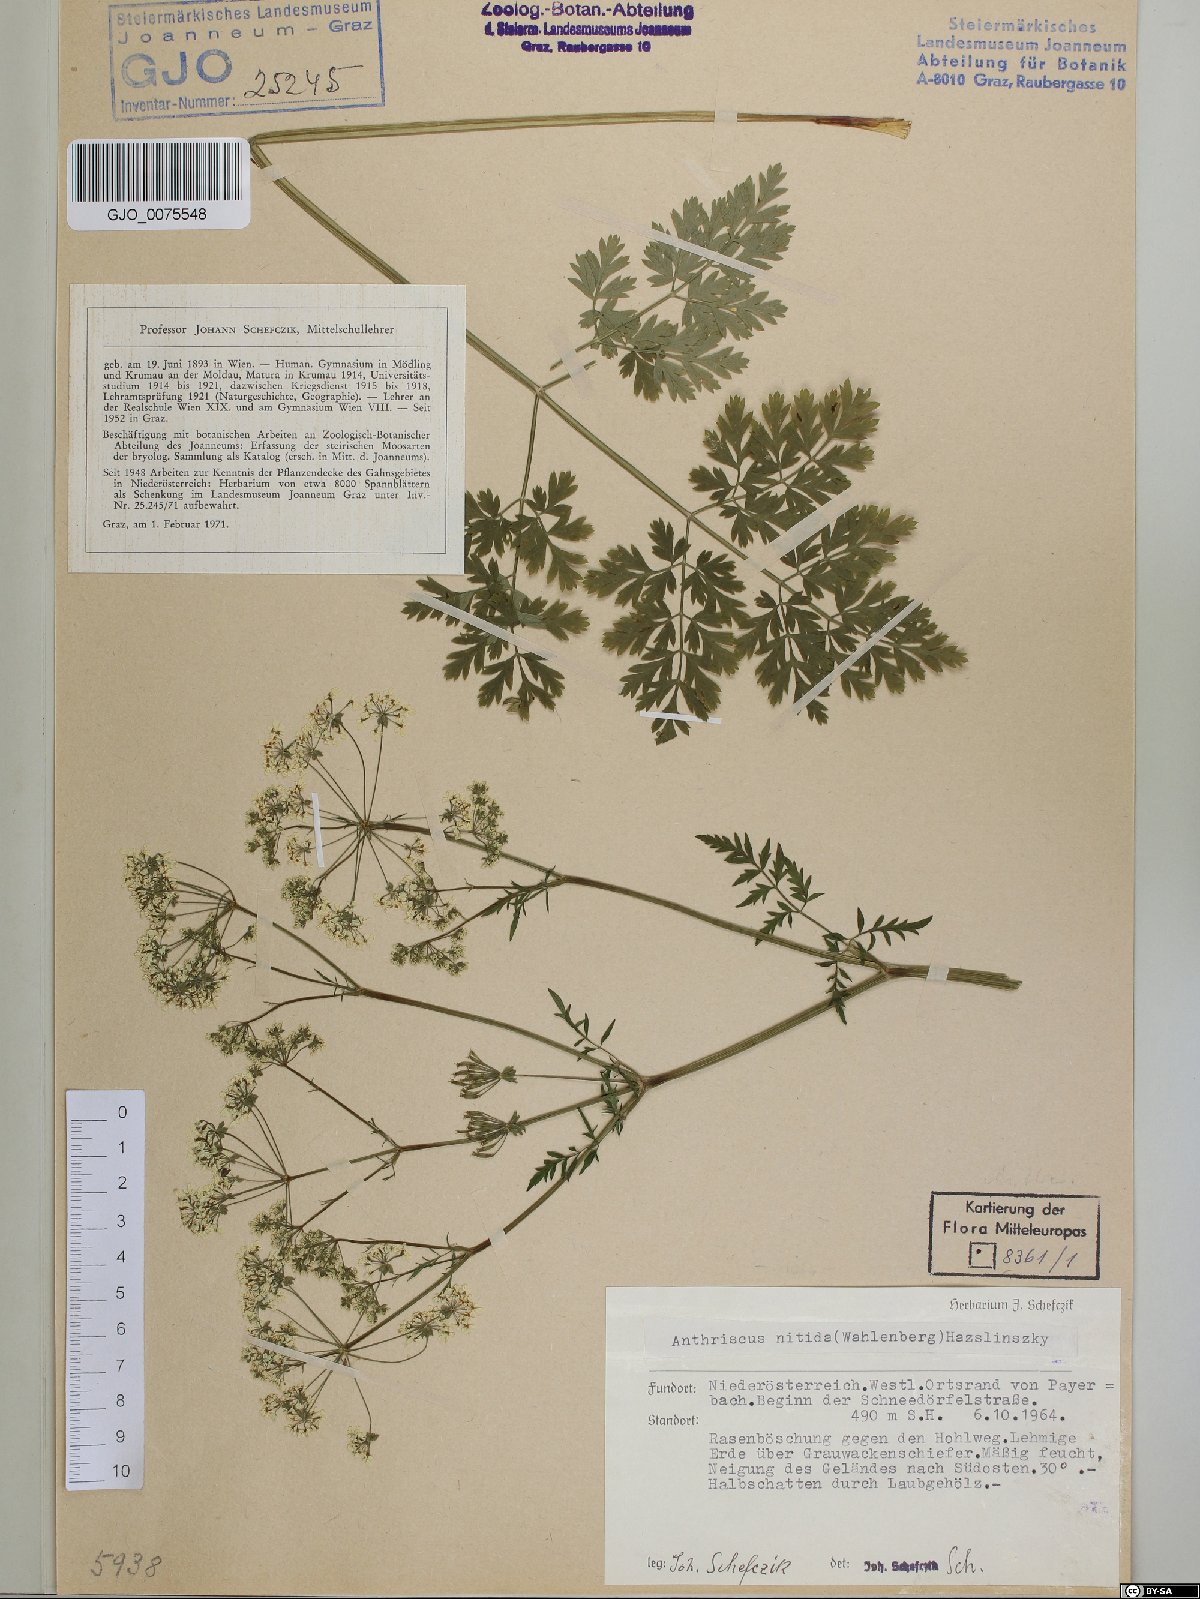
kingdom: Plantae
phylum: Tracheophyta
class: Magnoliopsida
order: Apiales
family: Apiaceae
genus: Anthriscus
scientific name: Anthriscus nitida
